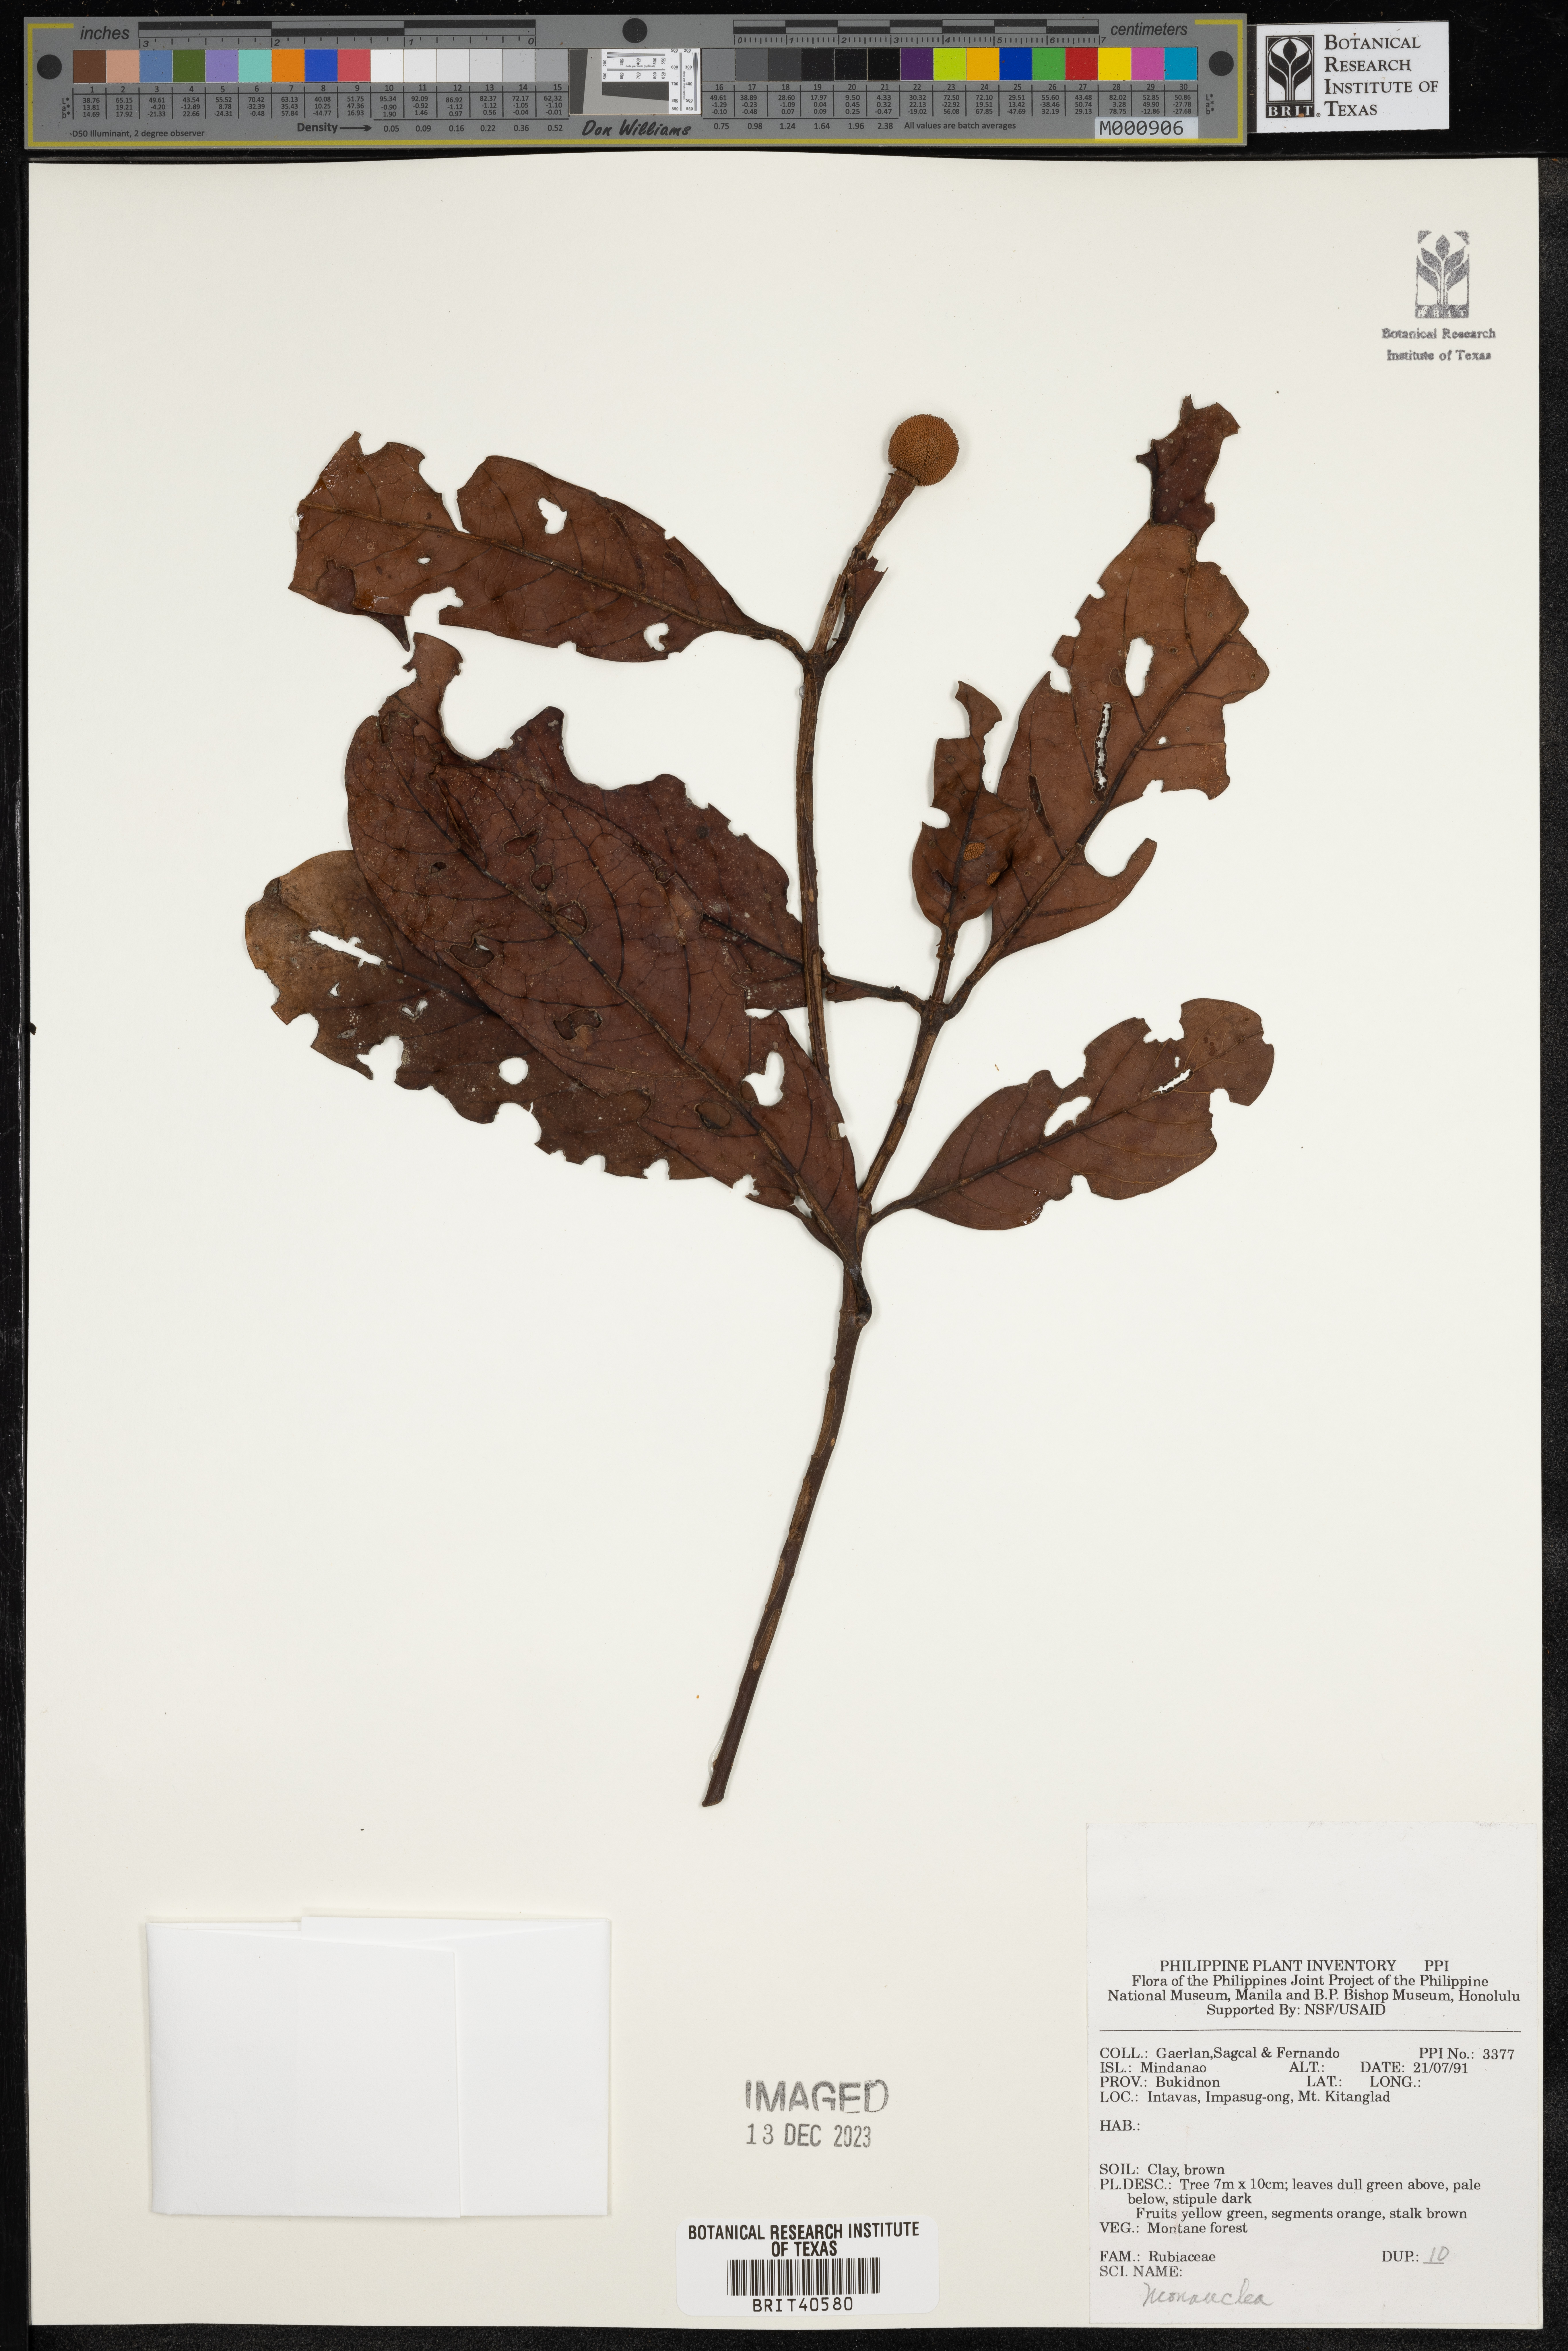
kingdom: Plantae
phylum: Tracheophyta
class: Magnoliopsida
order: Gentianales
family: Rubiaceae
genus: Neonauclea
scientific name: Neonauclea
